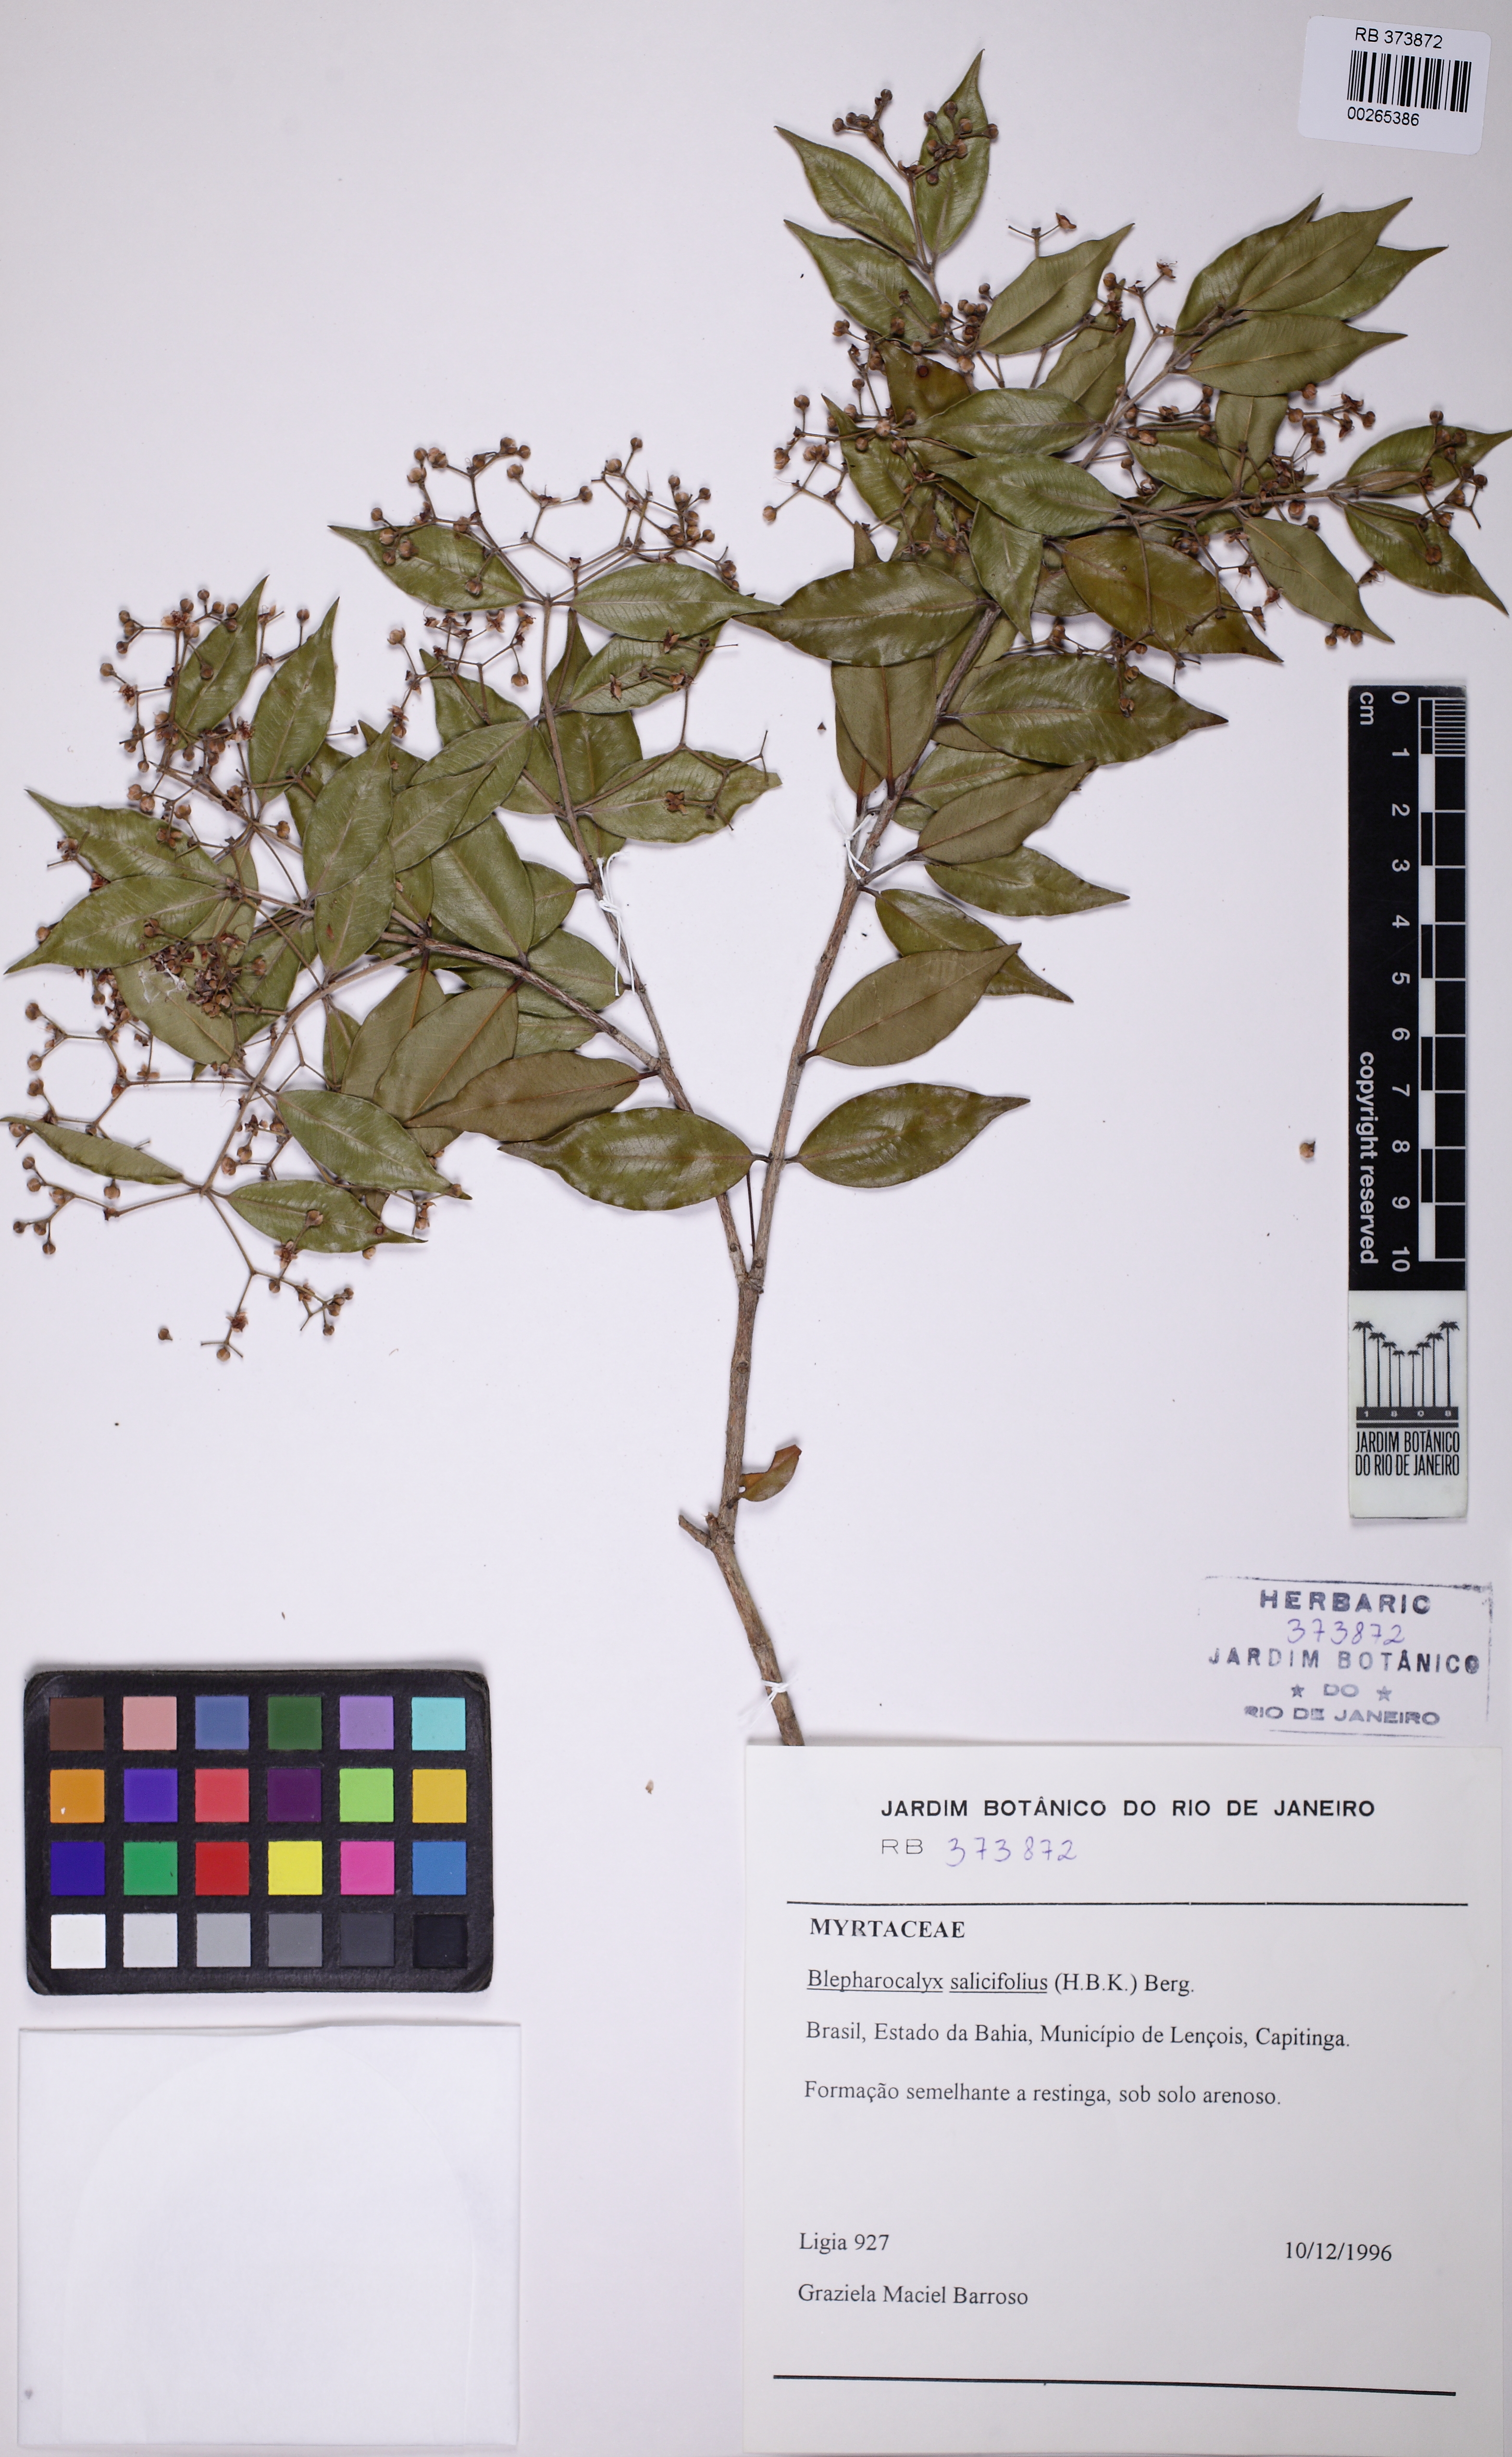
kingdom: Plantae
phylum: Tracheophyta
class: Magnoliopsida
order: Myrtales
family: Myrtaceae
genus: Blepharocalyx
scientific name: Blepharocalyx salicifolius
